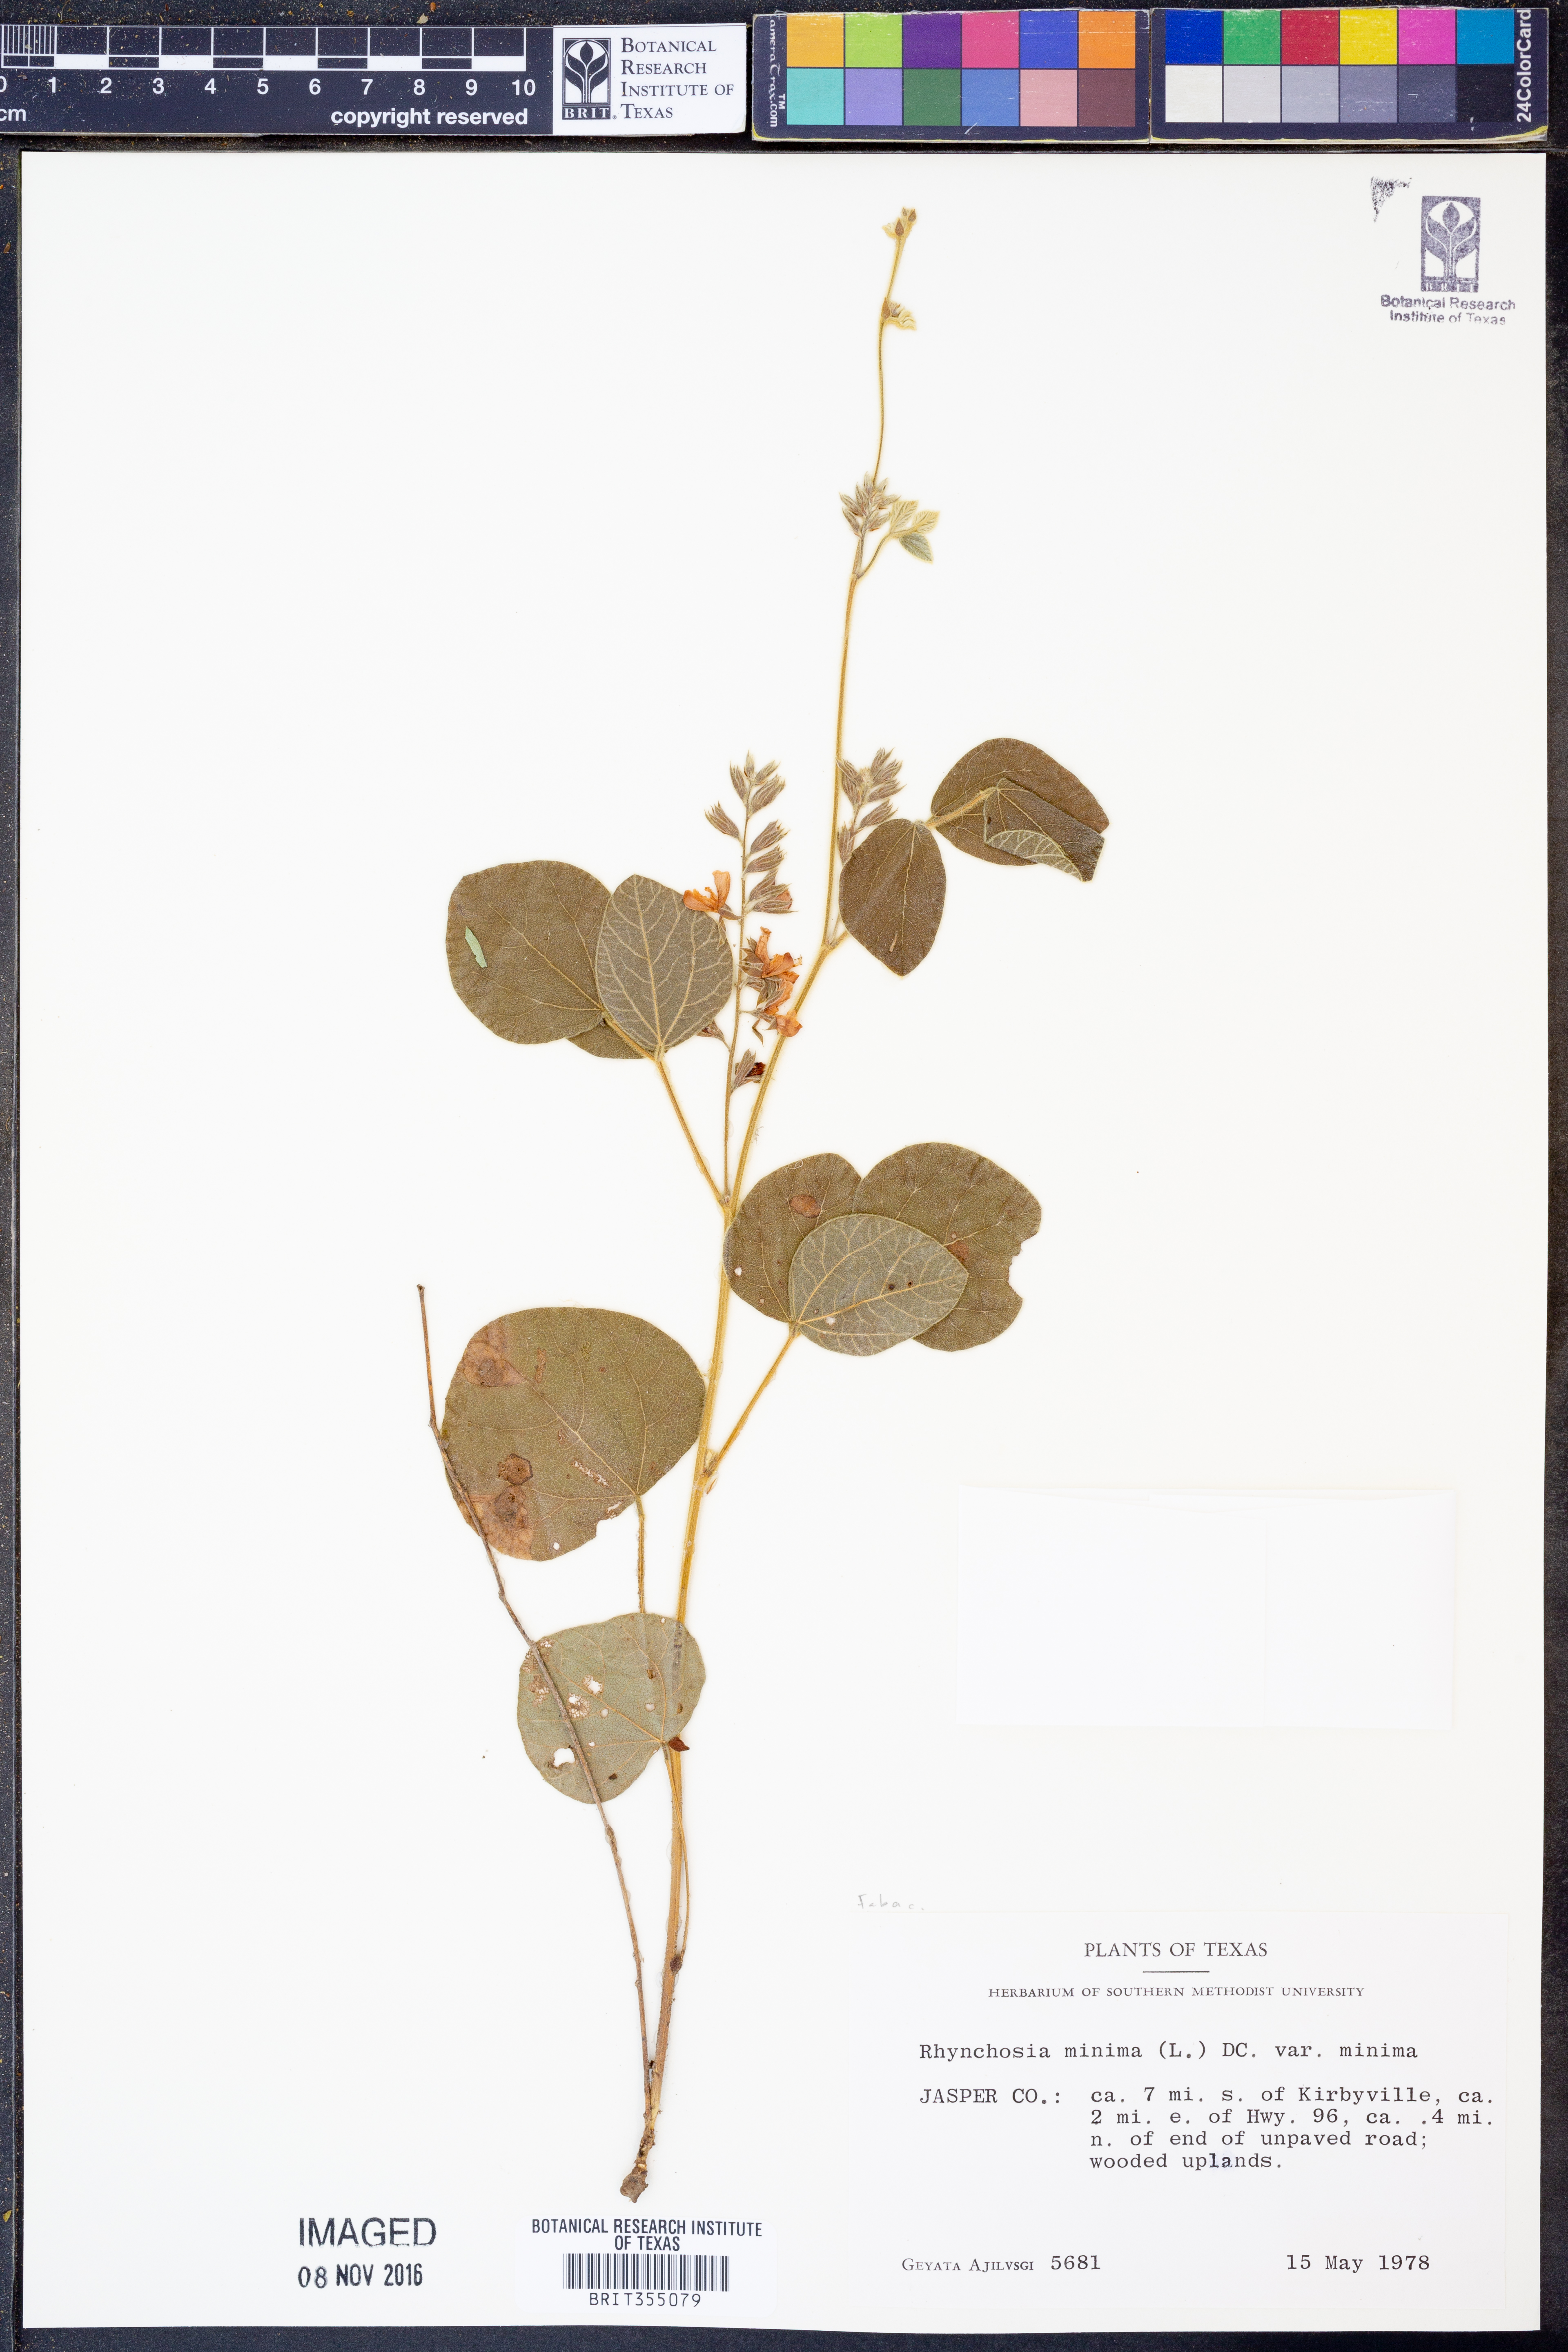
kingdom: Plantae
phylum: Tracheophyta
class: Magnoliopsida
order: Fabales
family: Fabaceae
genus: Rhynchosia
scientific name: Rhynchosia minima
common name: Least snoutbean
